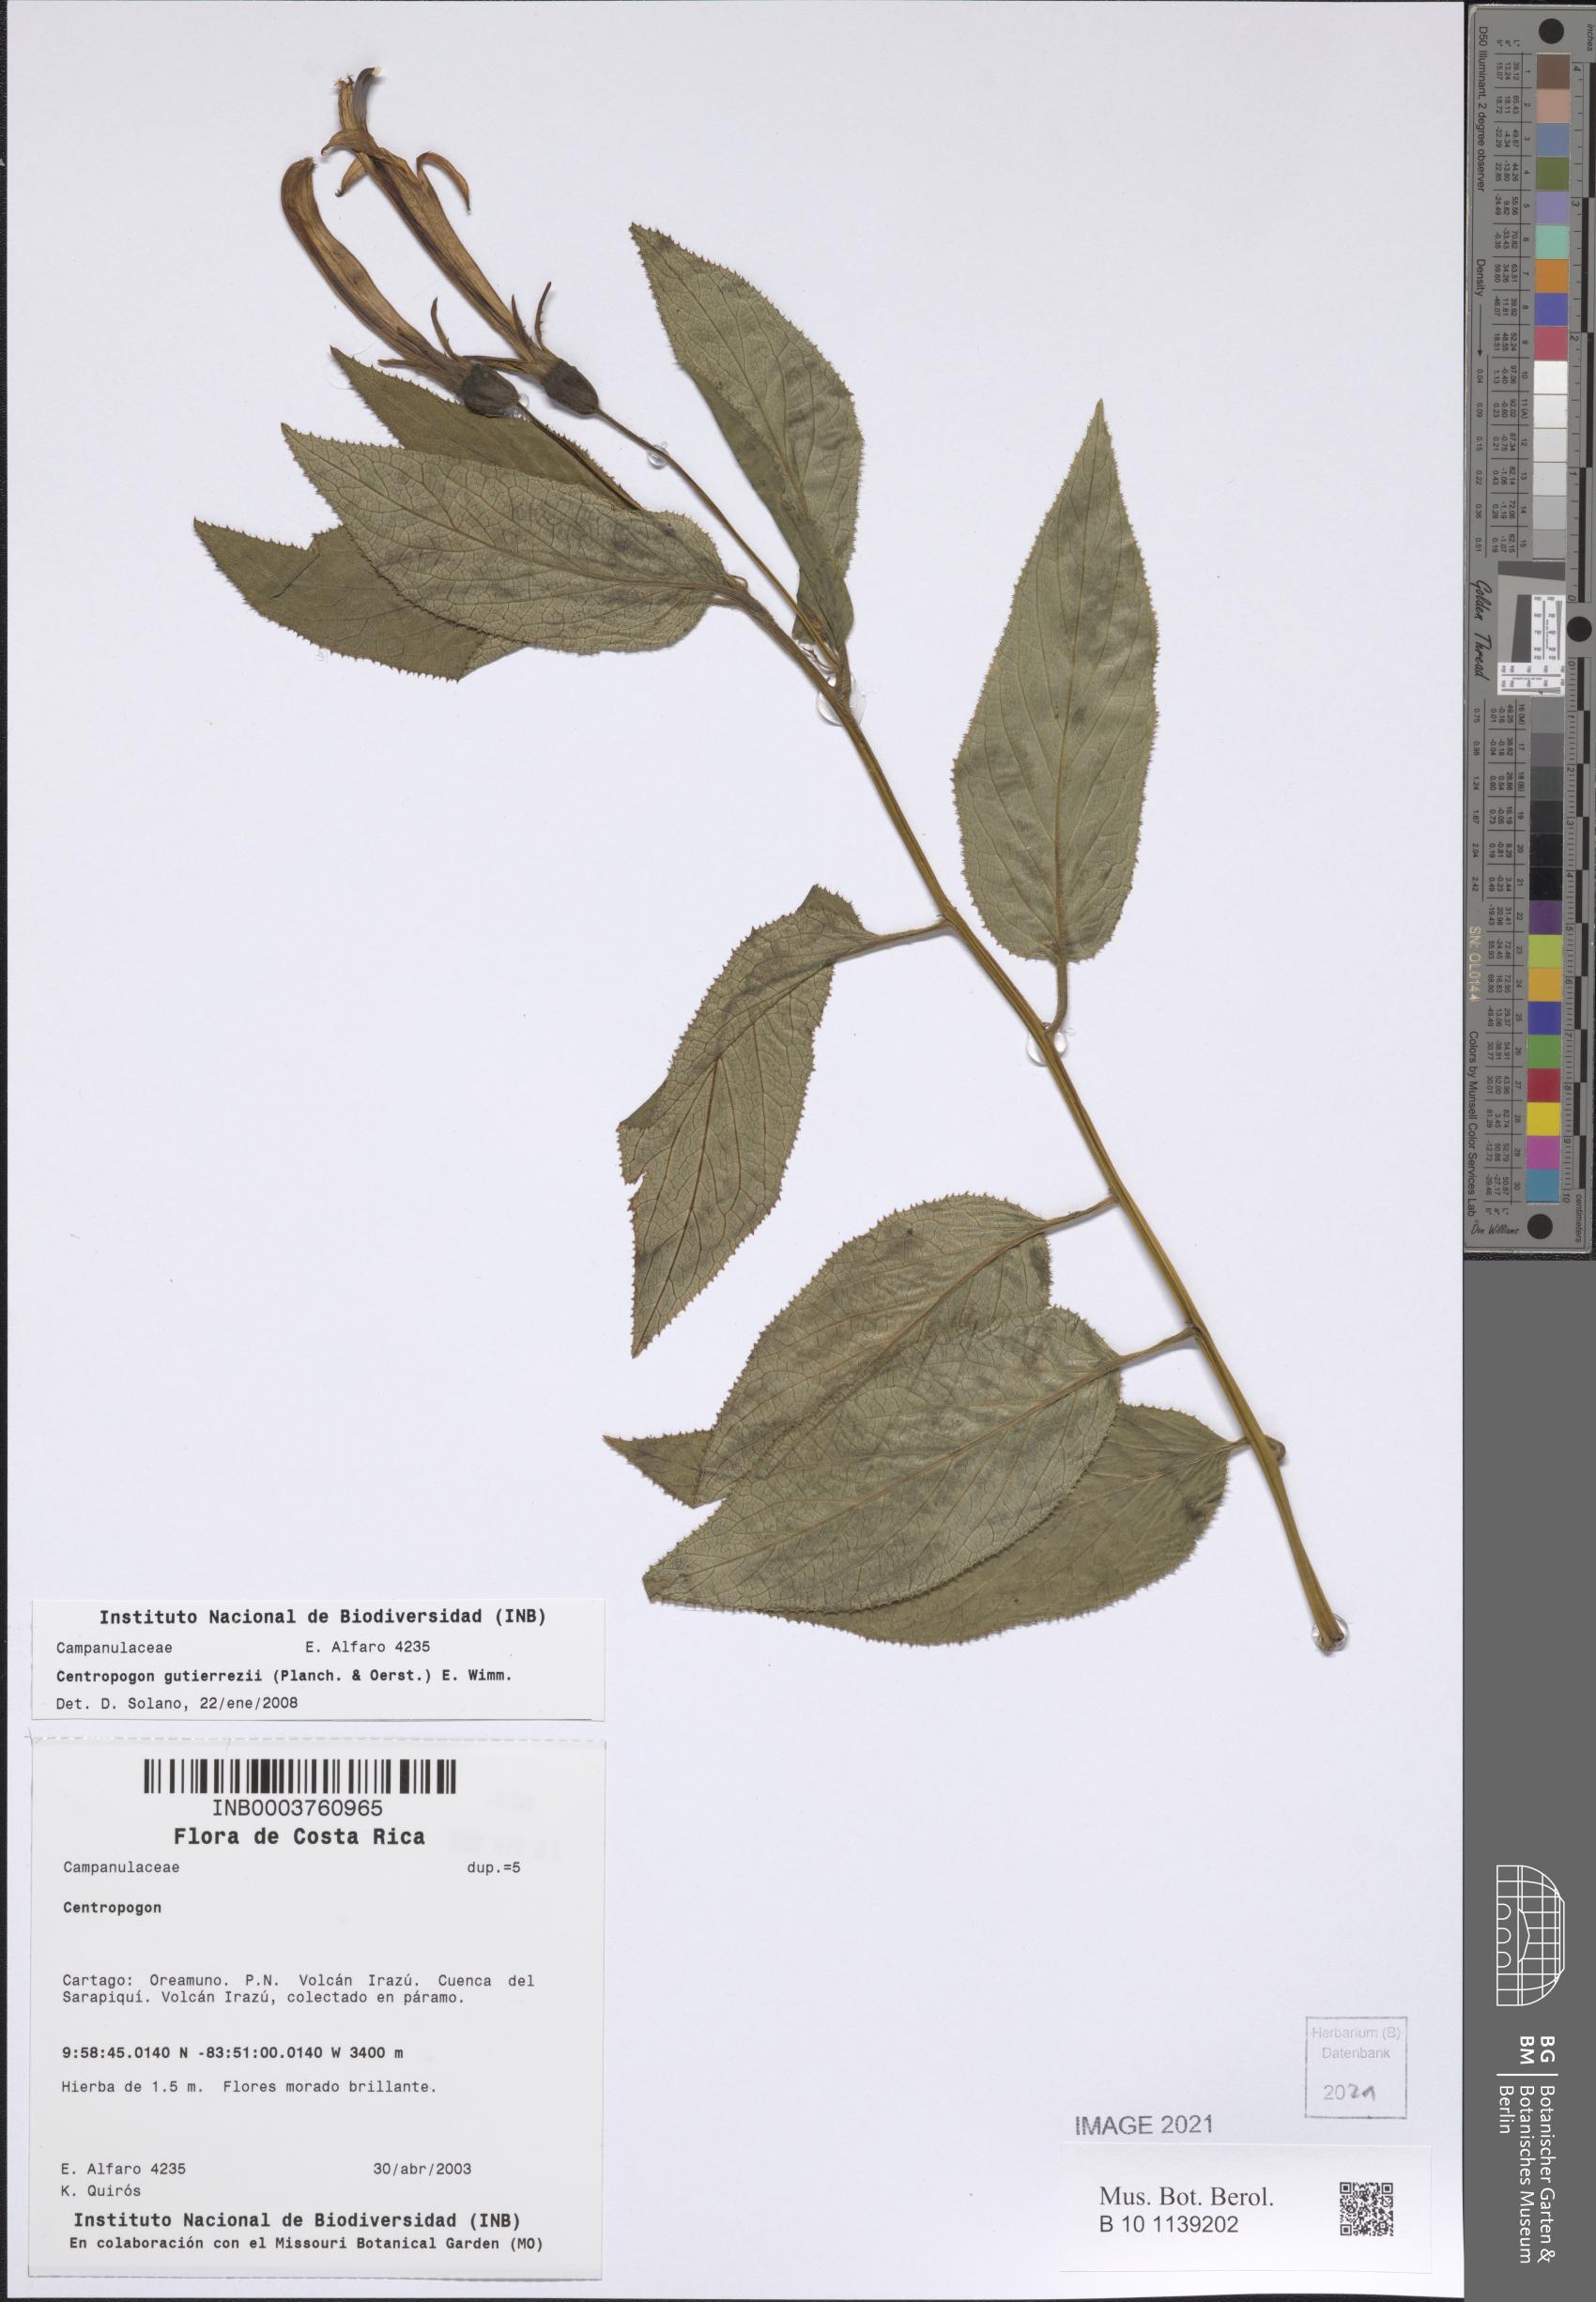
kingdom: Plantae
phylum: Tracheophyta
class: Magnoliopsida
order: Asterales
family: Campanulaceae
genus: Centropogon
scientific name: Centropogon gutierrezii
